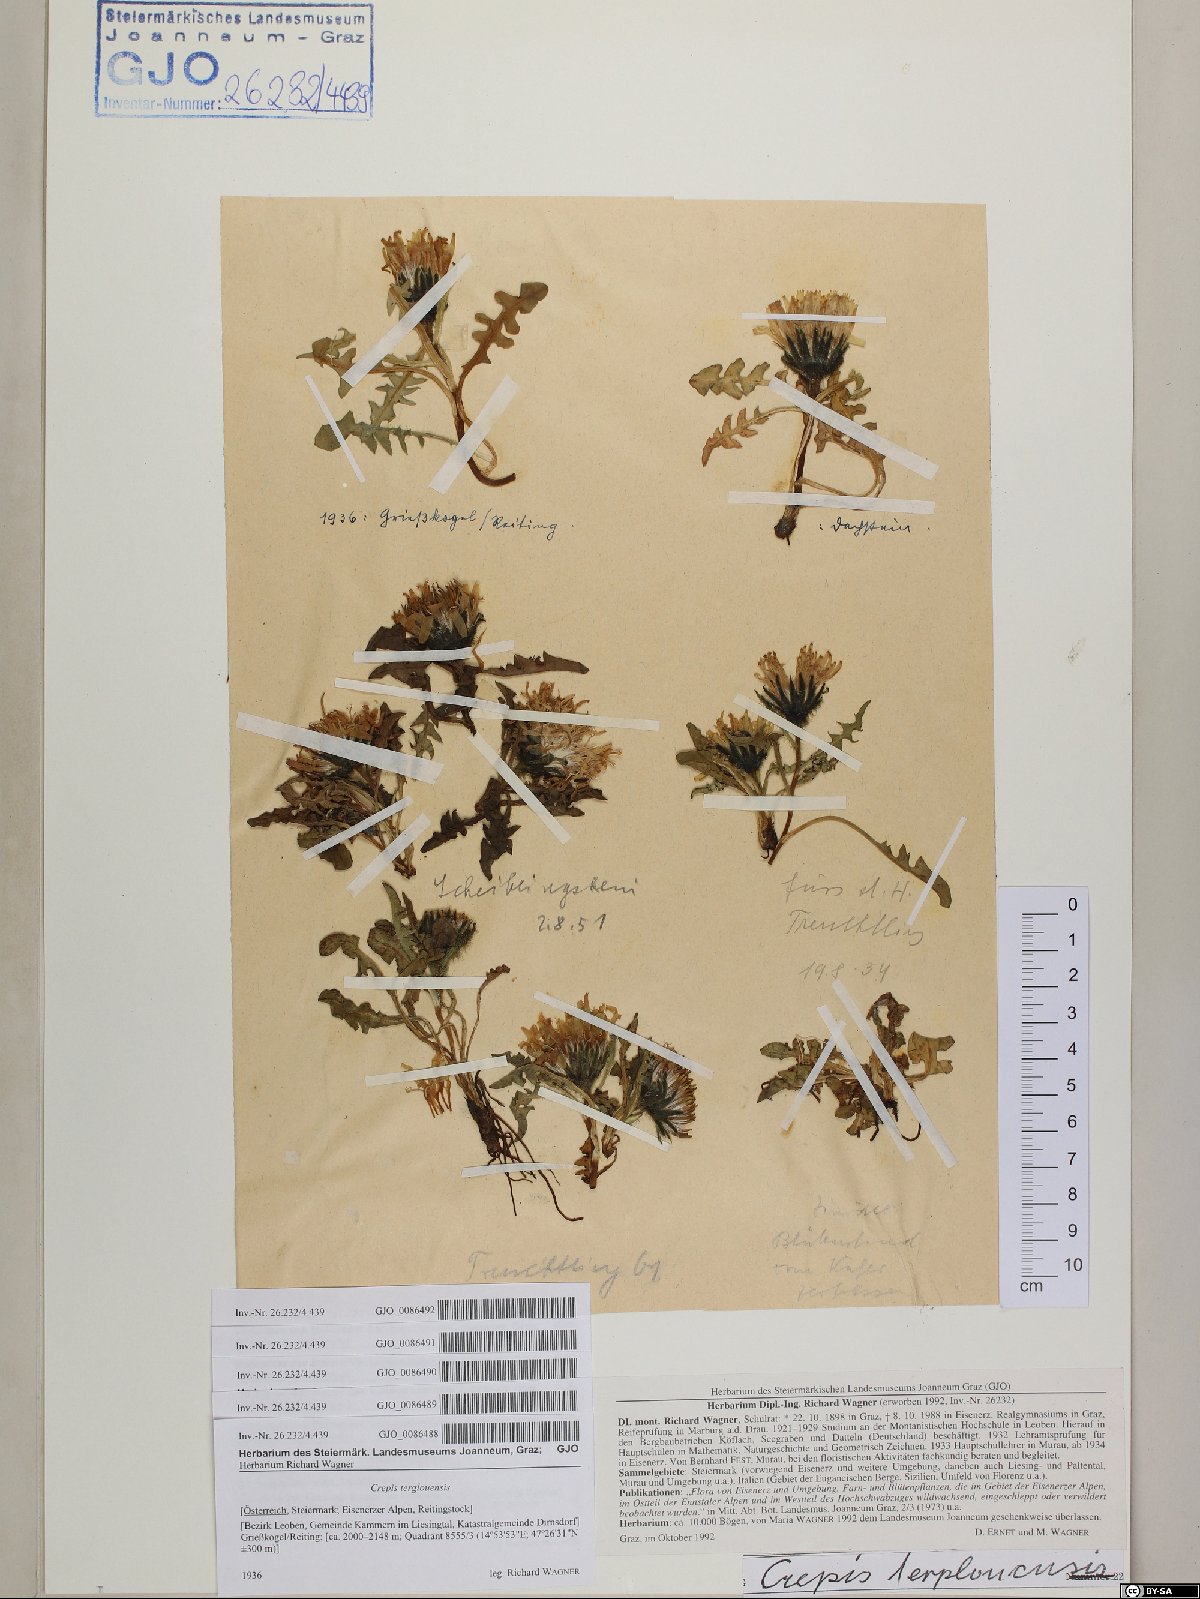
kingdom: Plantae
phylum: Tracheophyta
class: Magnoliopsida
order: Asterales
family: Asteraceae
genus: Crepis
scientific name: Crepis terglouensis
